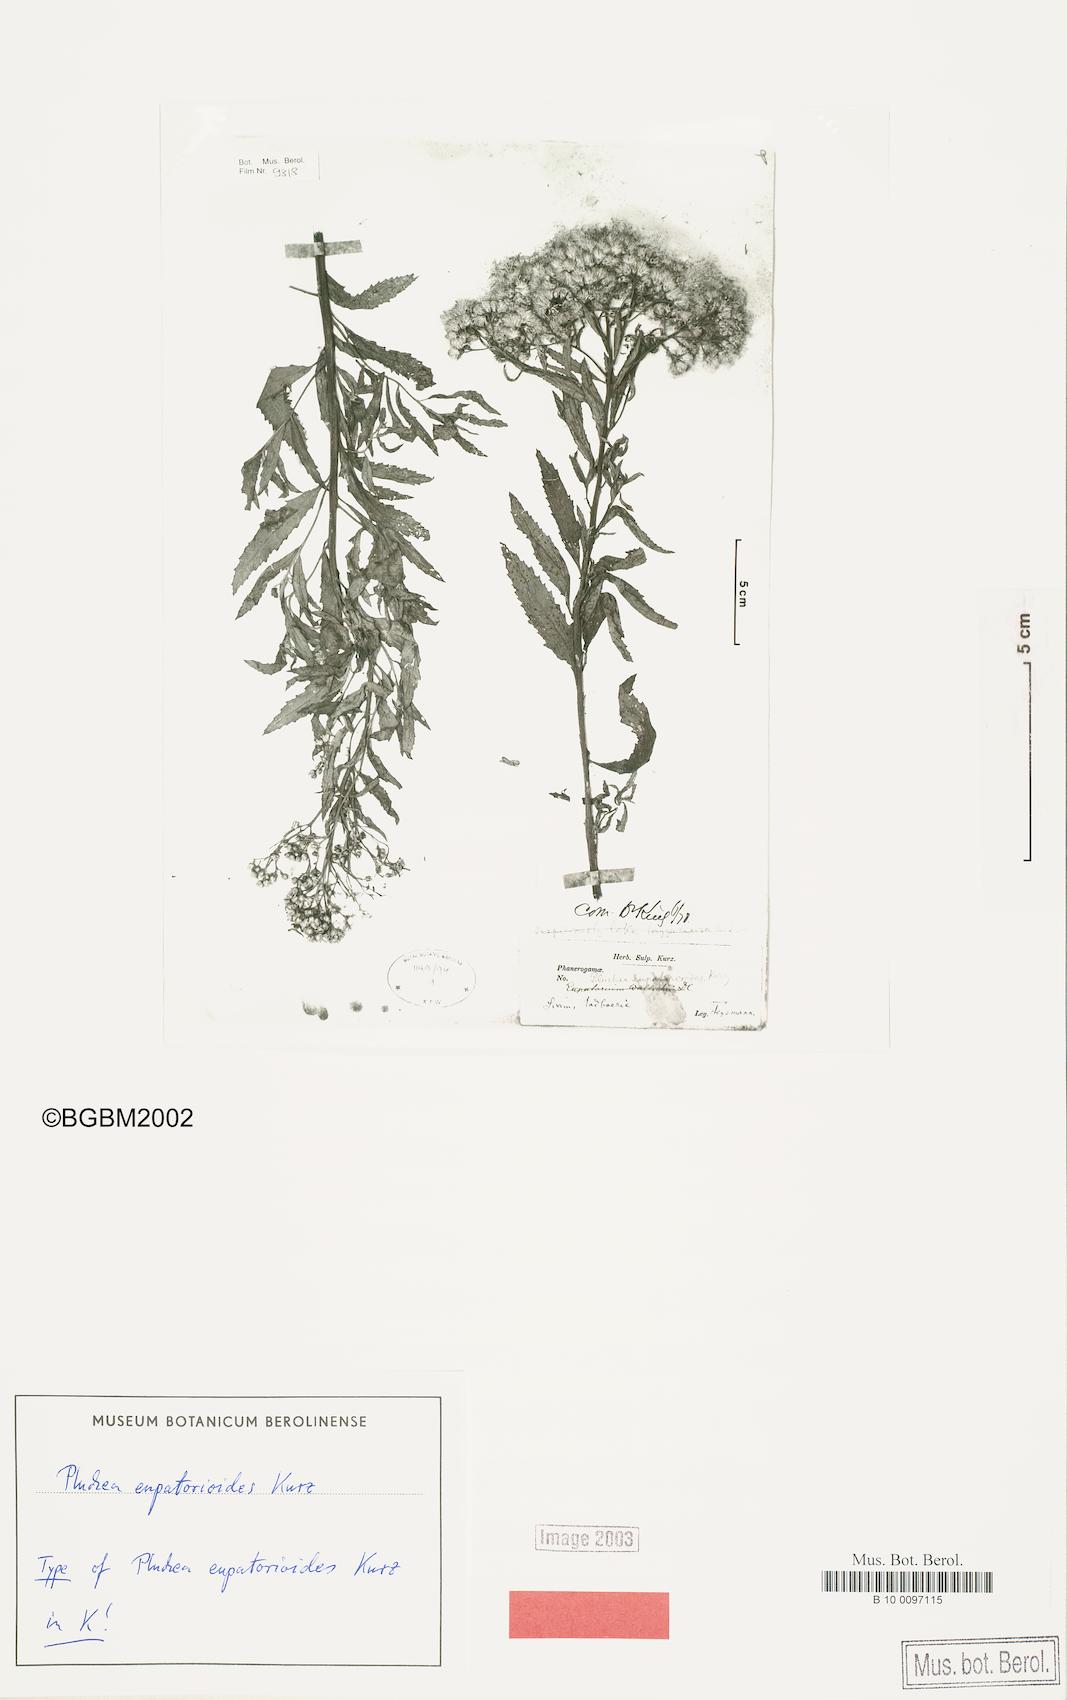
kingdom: Plantae
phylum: Tracheophyta
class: Magnoliopsida
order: Asterales
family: Asteraceae
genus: Pluchea
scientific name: Pluchea eupatorioides
